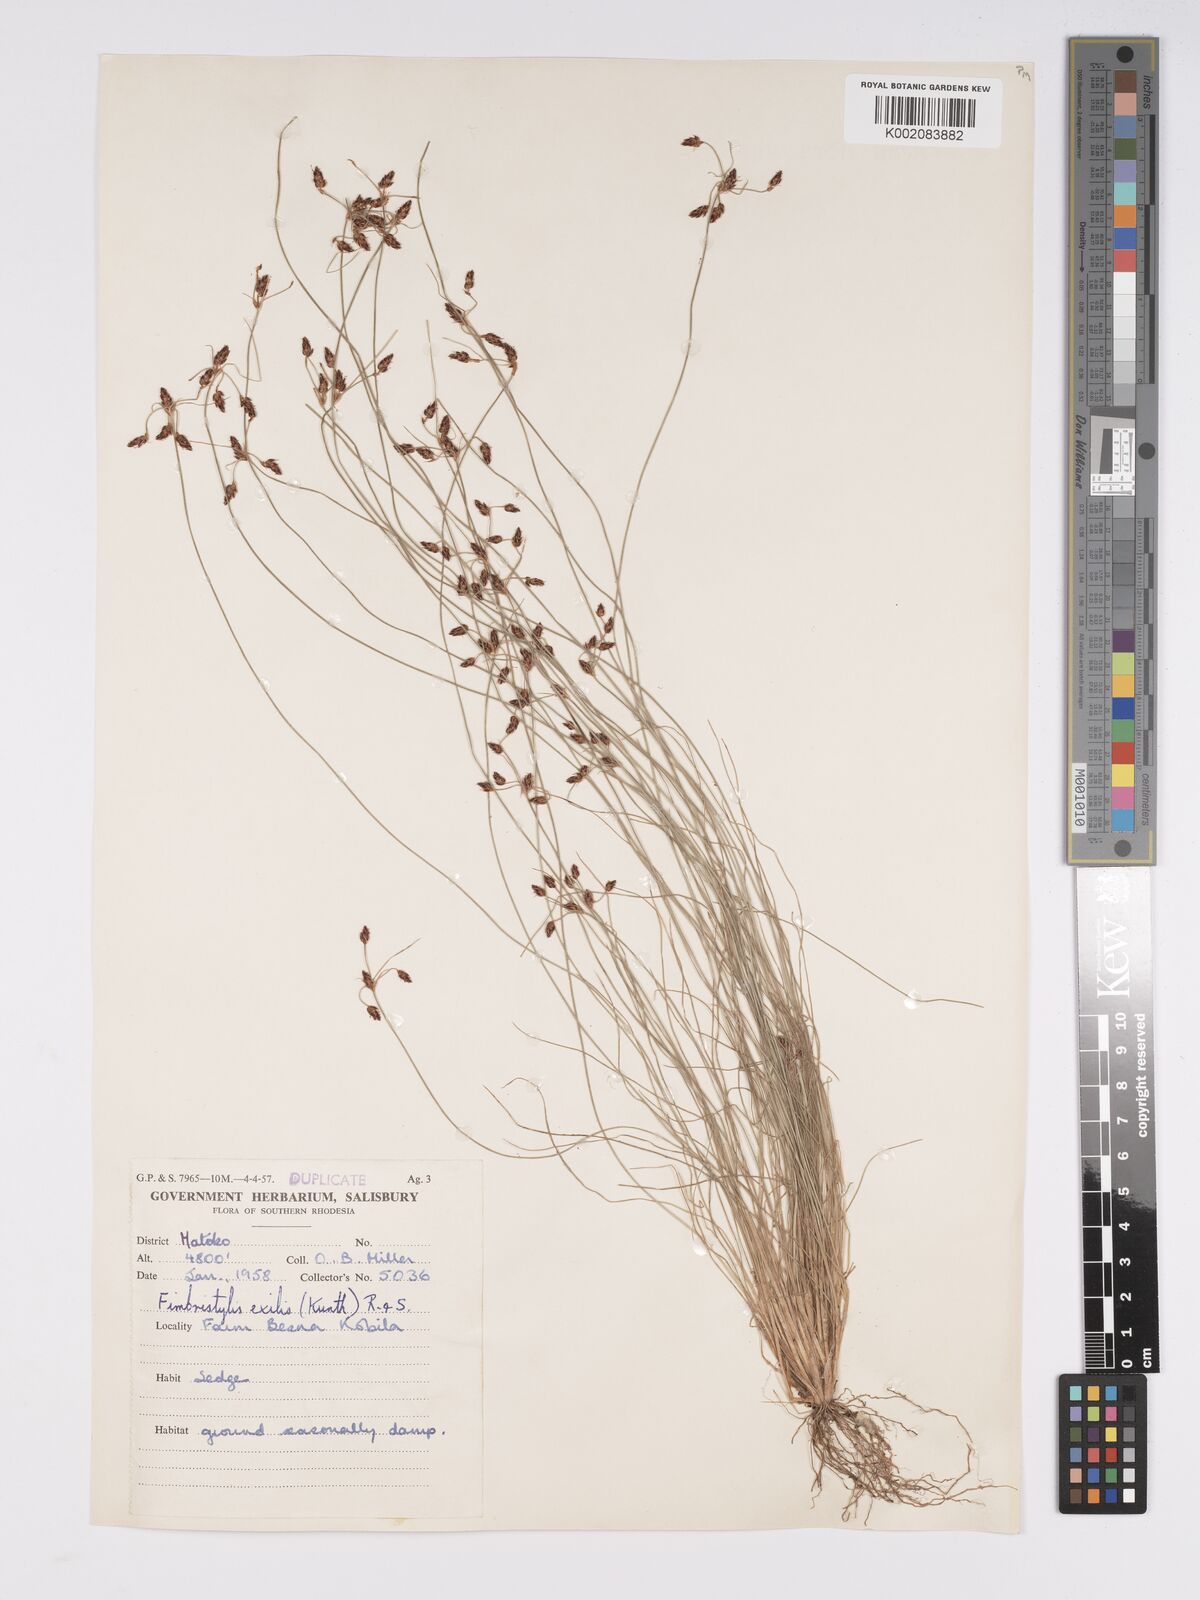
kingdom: Plantae
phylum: Tracheophyta
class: Liliopsida
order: Poales
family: Cyperaceae
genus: Bulbostylis
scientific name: Bulbostylis hispidula
